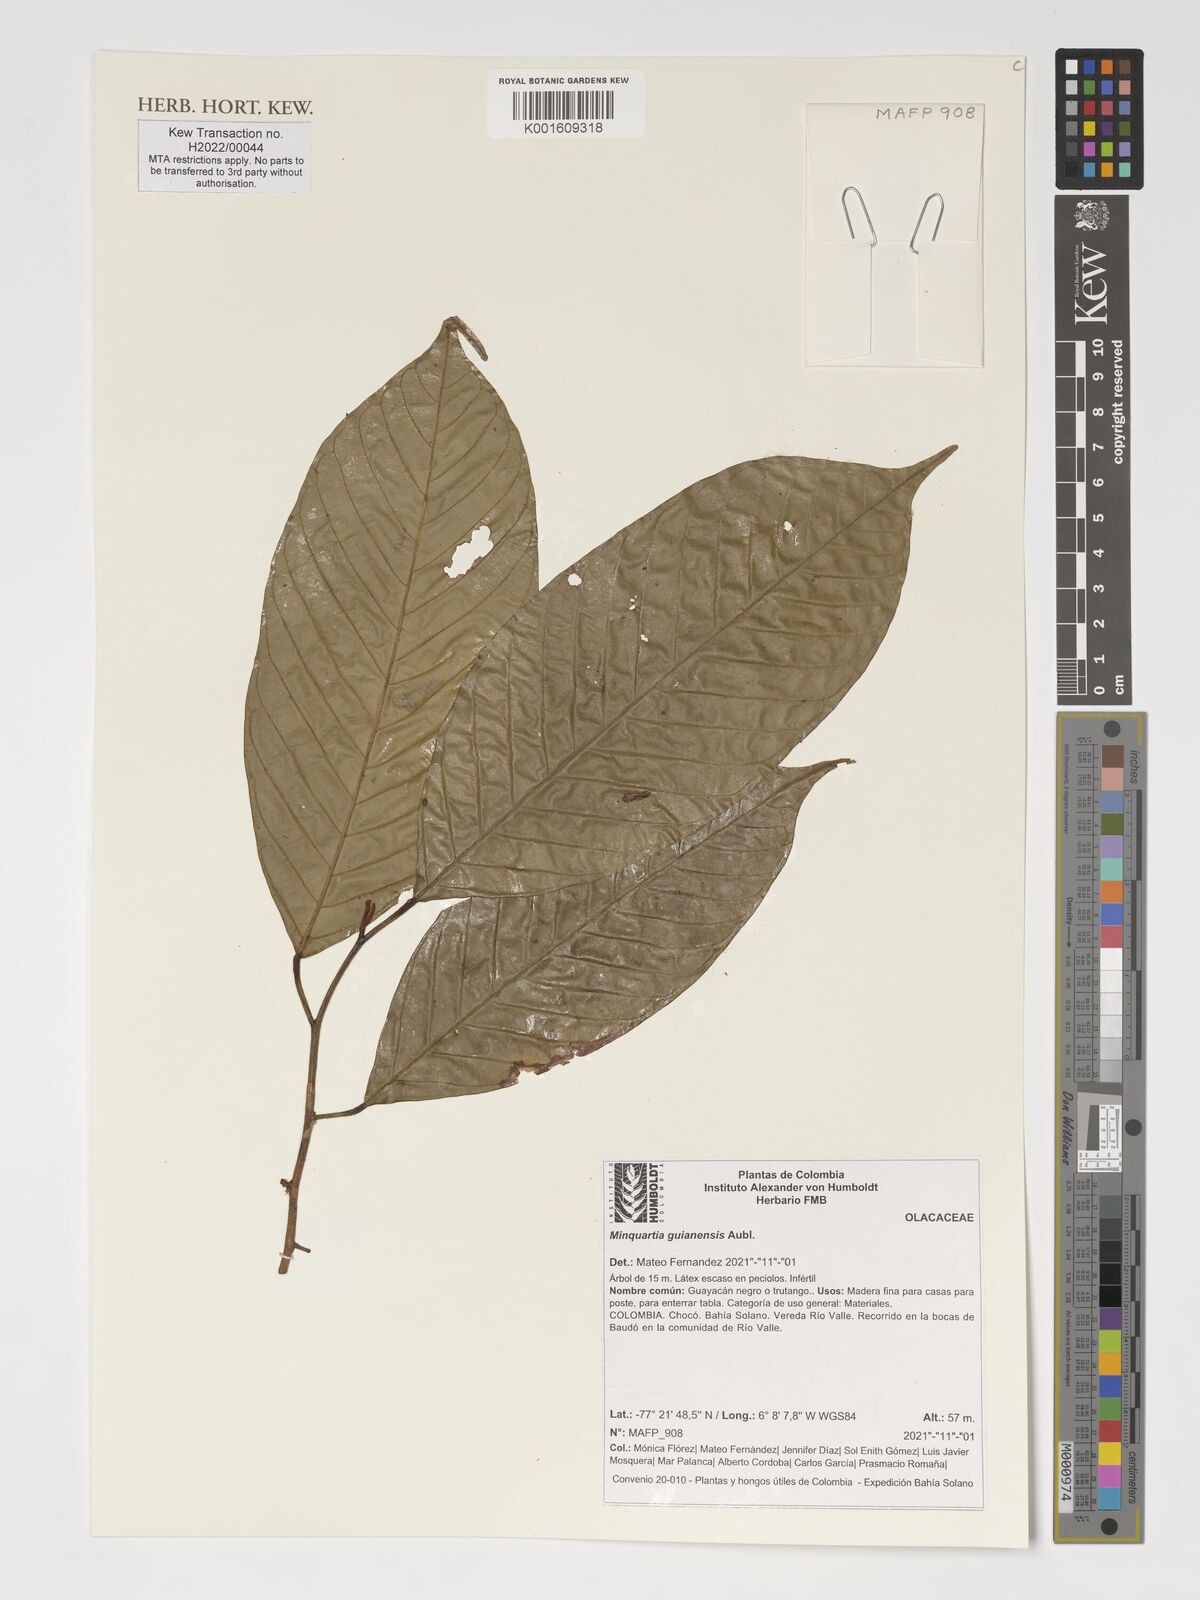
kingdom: Plantae
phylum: Tracheophyta
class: Magnoliopsida
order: Santalales
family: Coulaceae
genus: Minquartia
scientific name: Minquartia guianensis
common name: Black manwood
